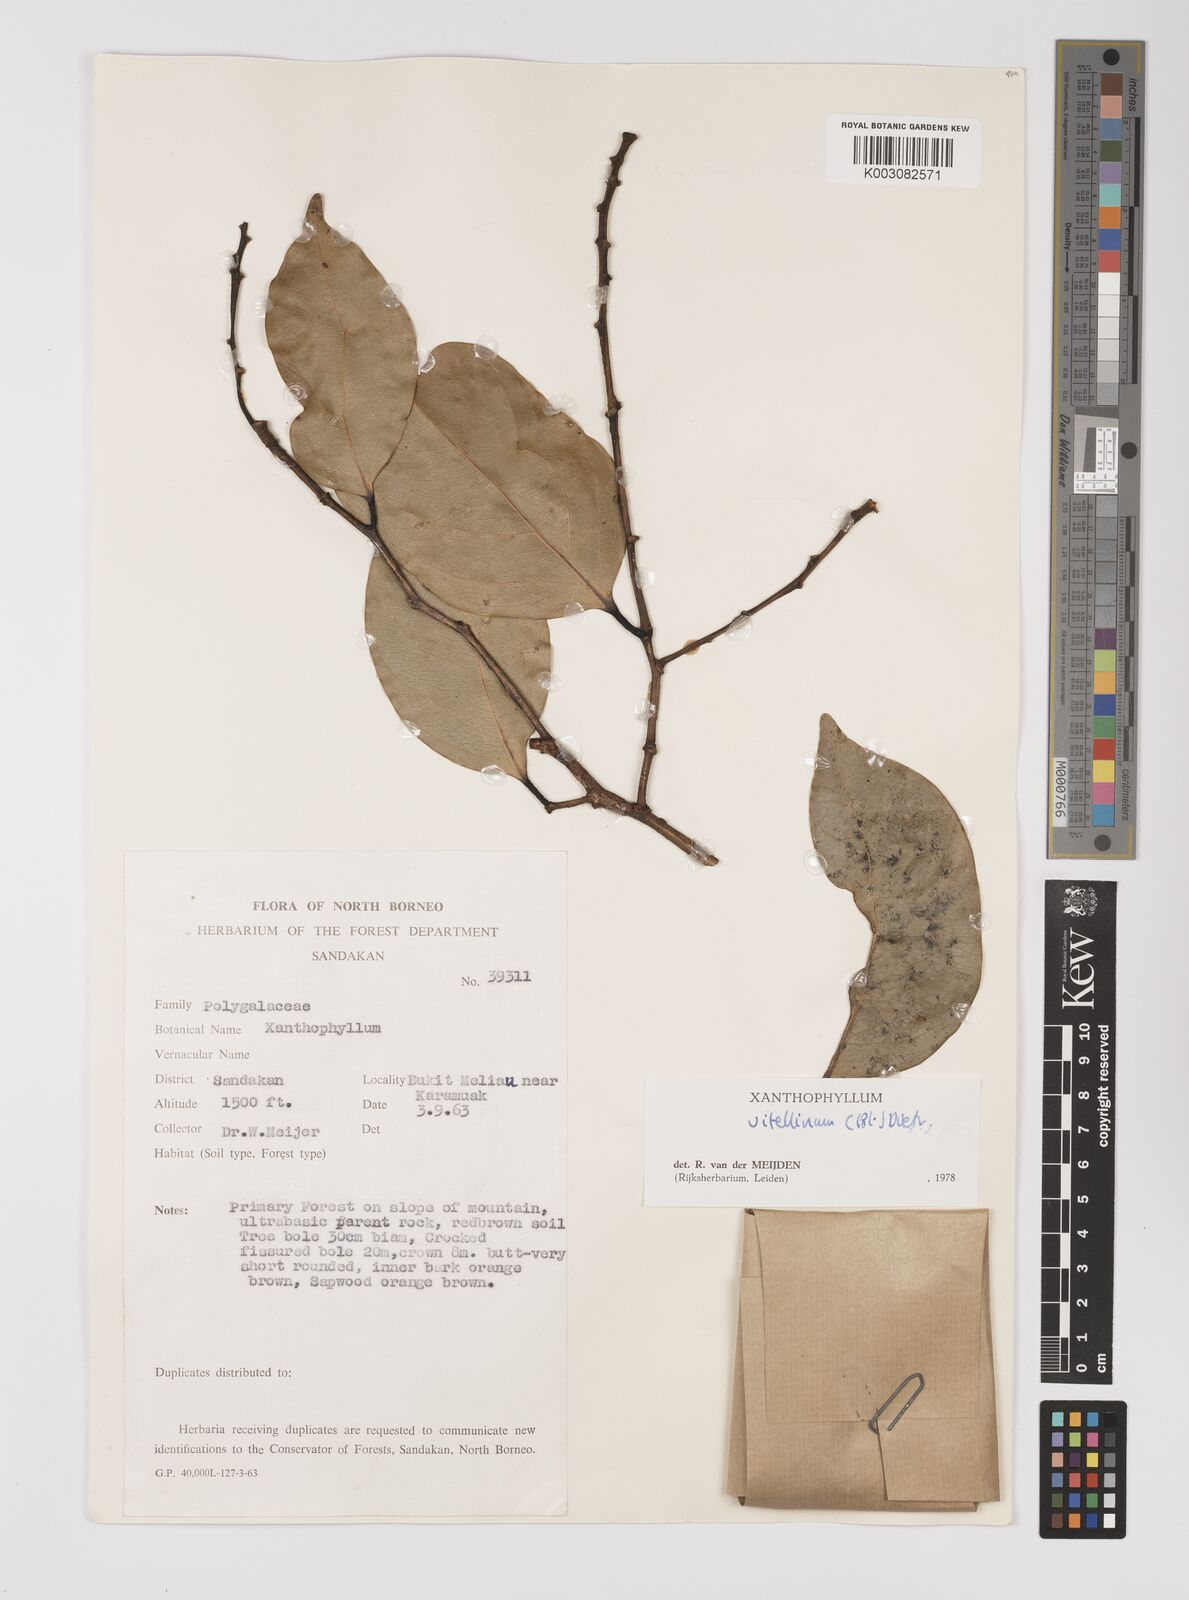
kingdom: Plantae
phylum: Tracheophyta
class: Magnoliopsida
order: Fabales
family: Polygalaceae
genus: Xanthophyllum
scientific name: Xanthophyllum vitellinum
